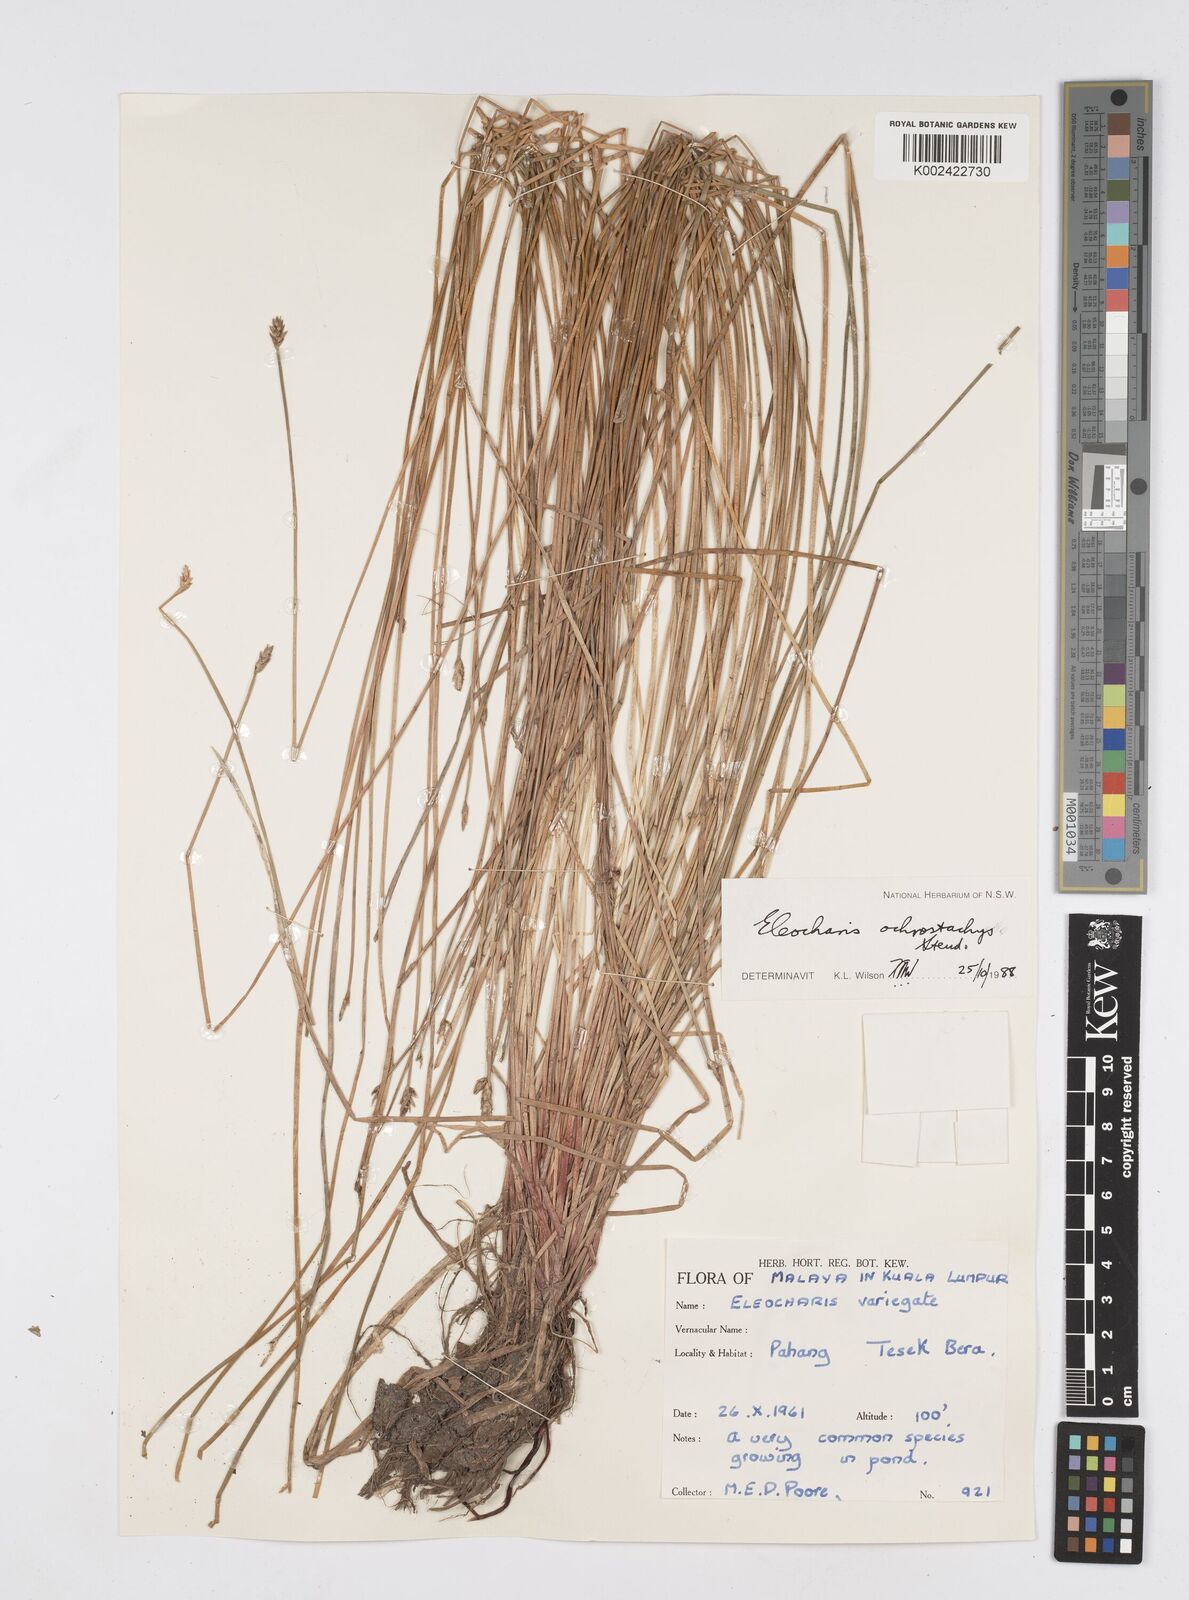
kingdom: Plantae
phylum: Tracheophyta
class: Liliopsida
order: Poales
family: Cyperaceae
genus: Eleocharis
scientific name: Eleocharis variegata
